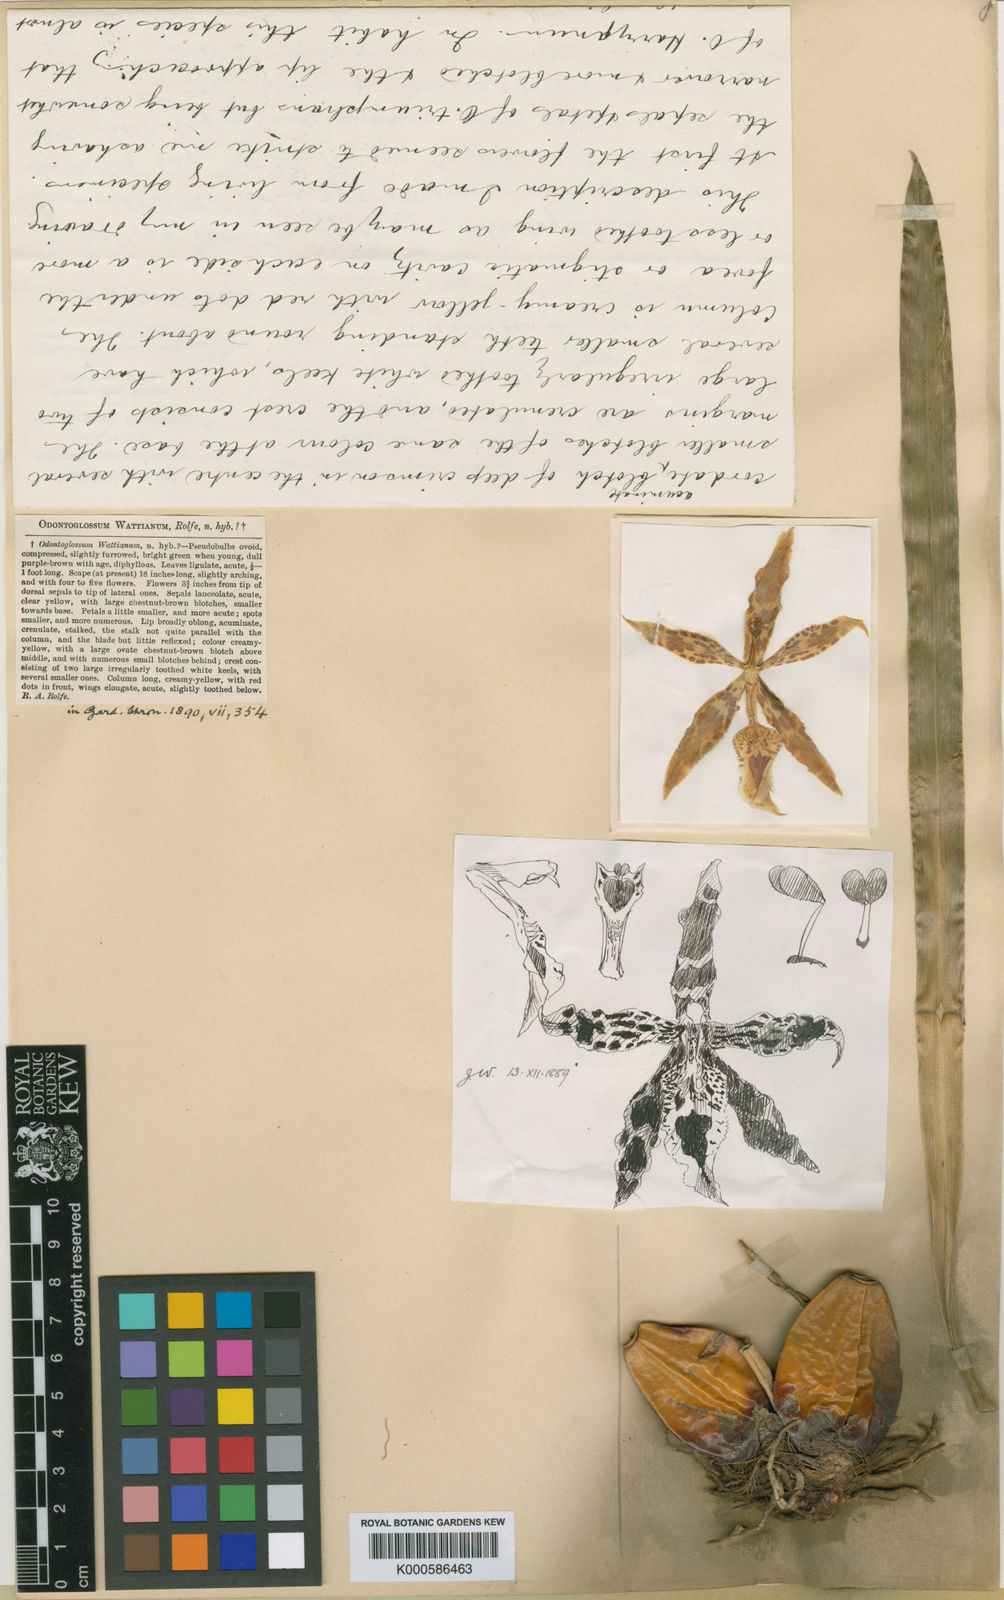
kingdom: Plantae
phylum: Tracheophyta
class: Liliopsida
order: Asparagales
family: Orchidaceae
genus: Oncidium
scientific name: Oncidium wattianum
